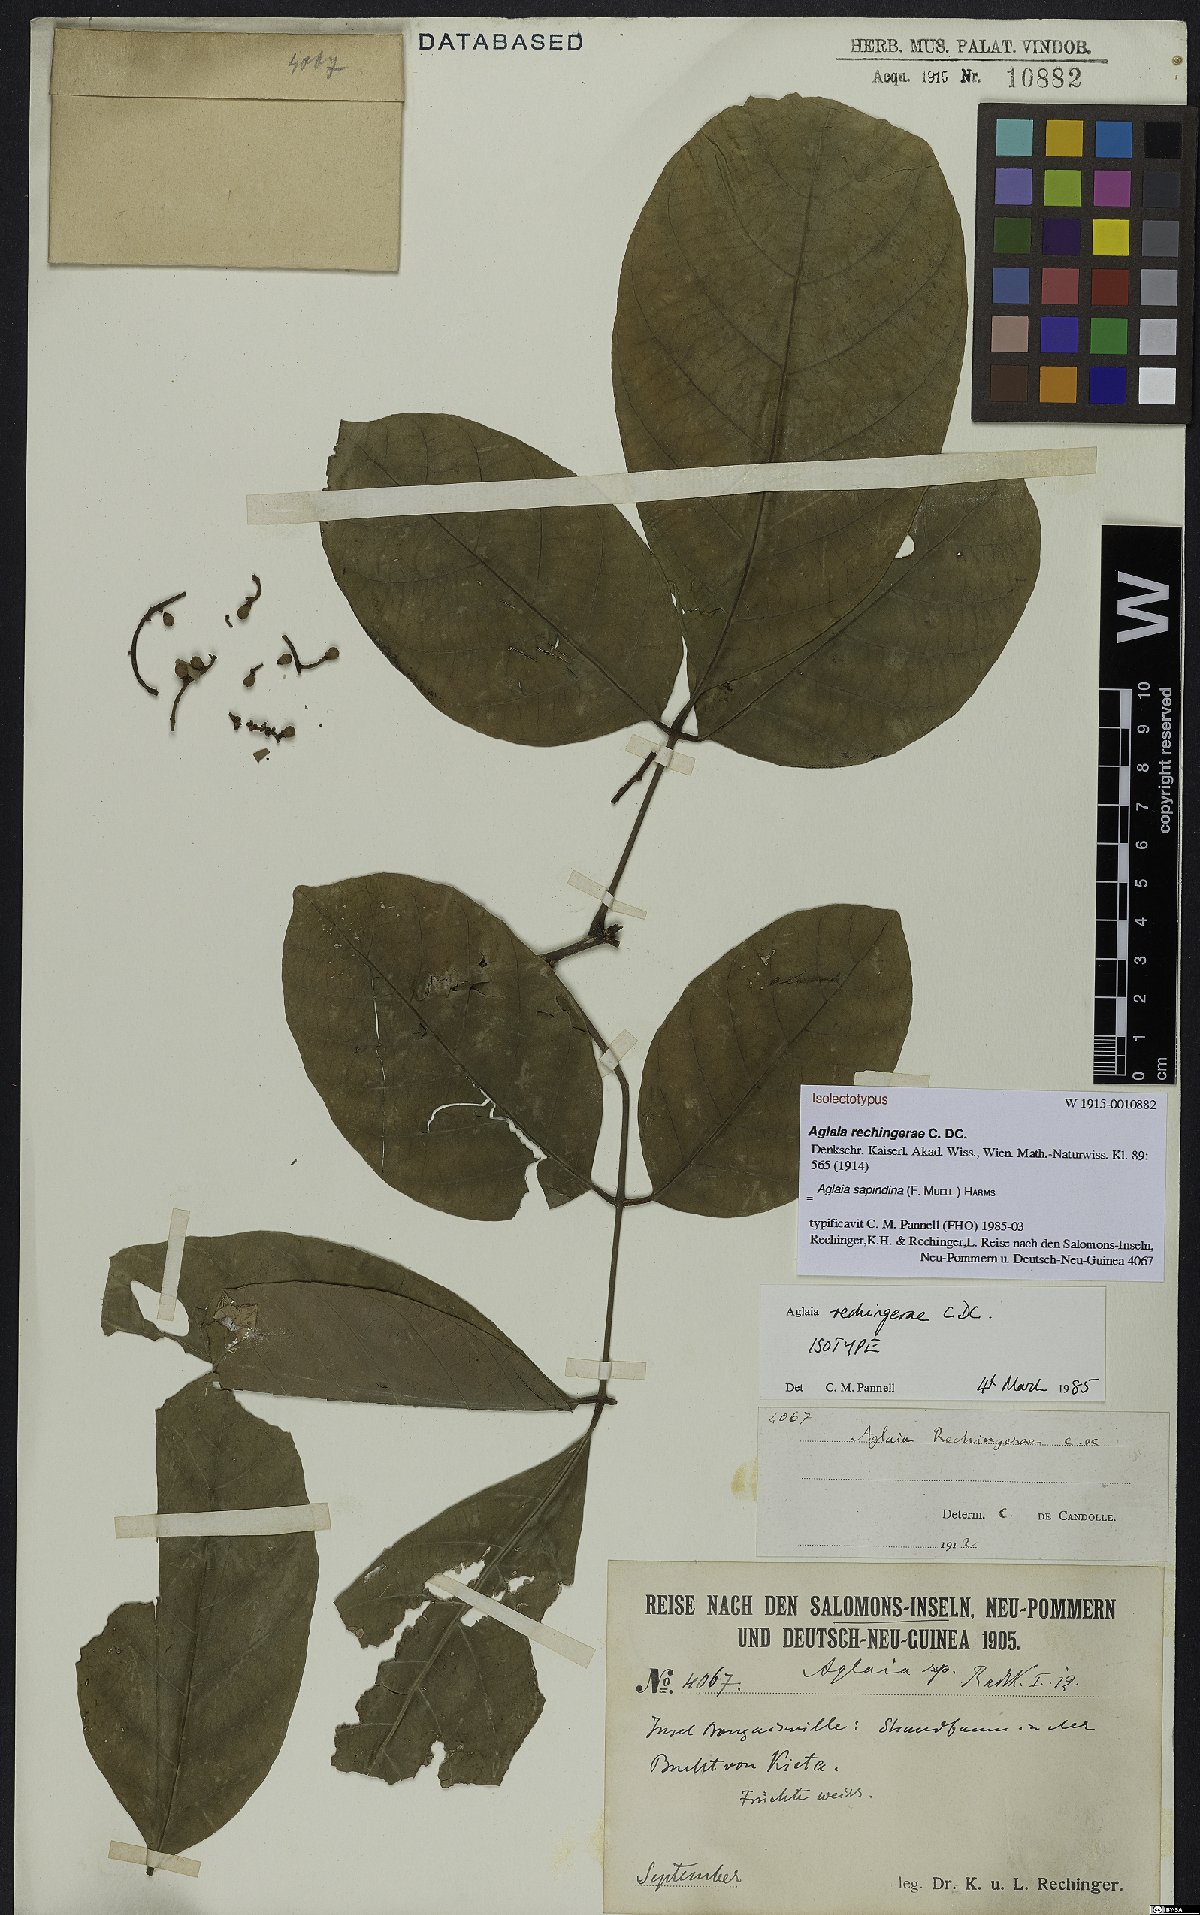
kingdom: Plantae
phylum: Tracheophyta
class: Magnoliopsida
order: Sapindales
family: Meliaceae
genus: Aglaia
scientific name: Aglaia sapindina
